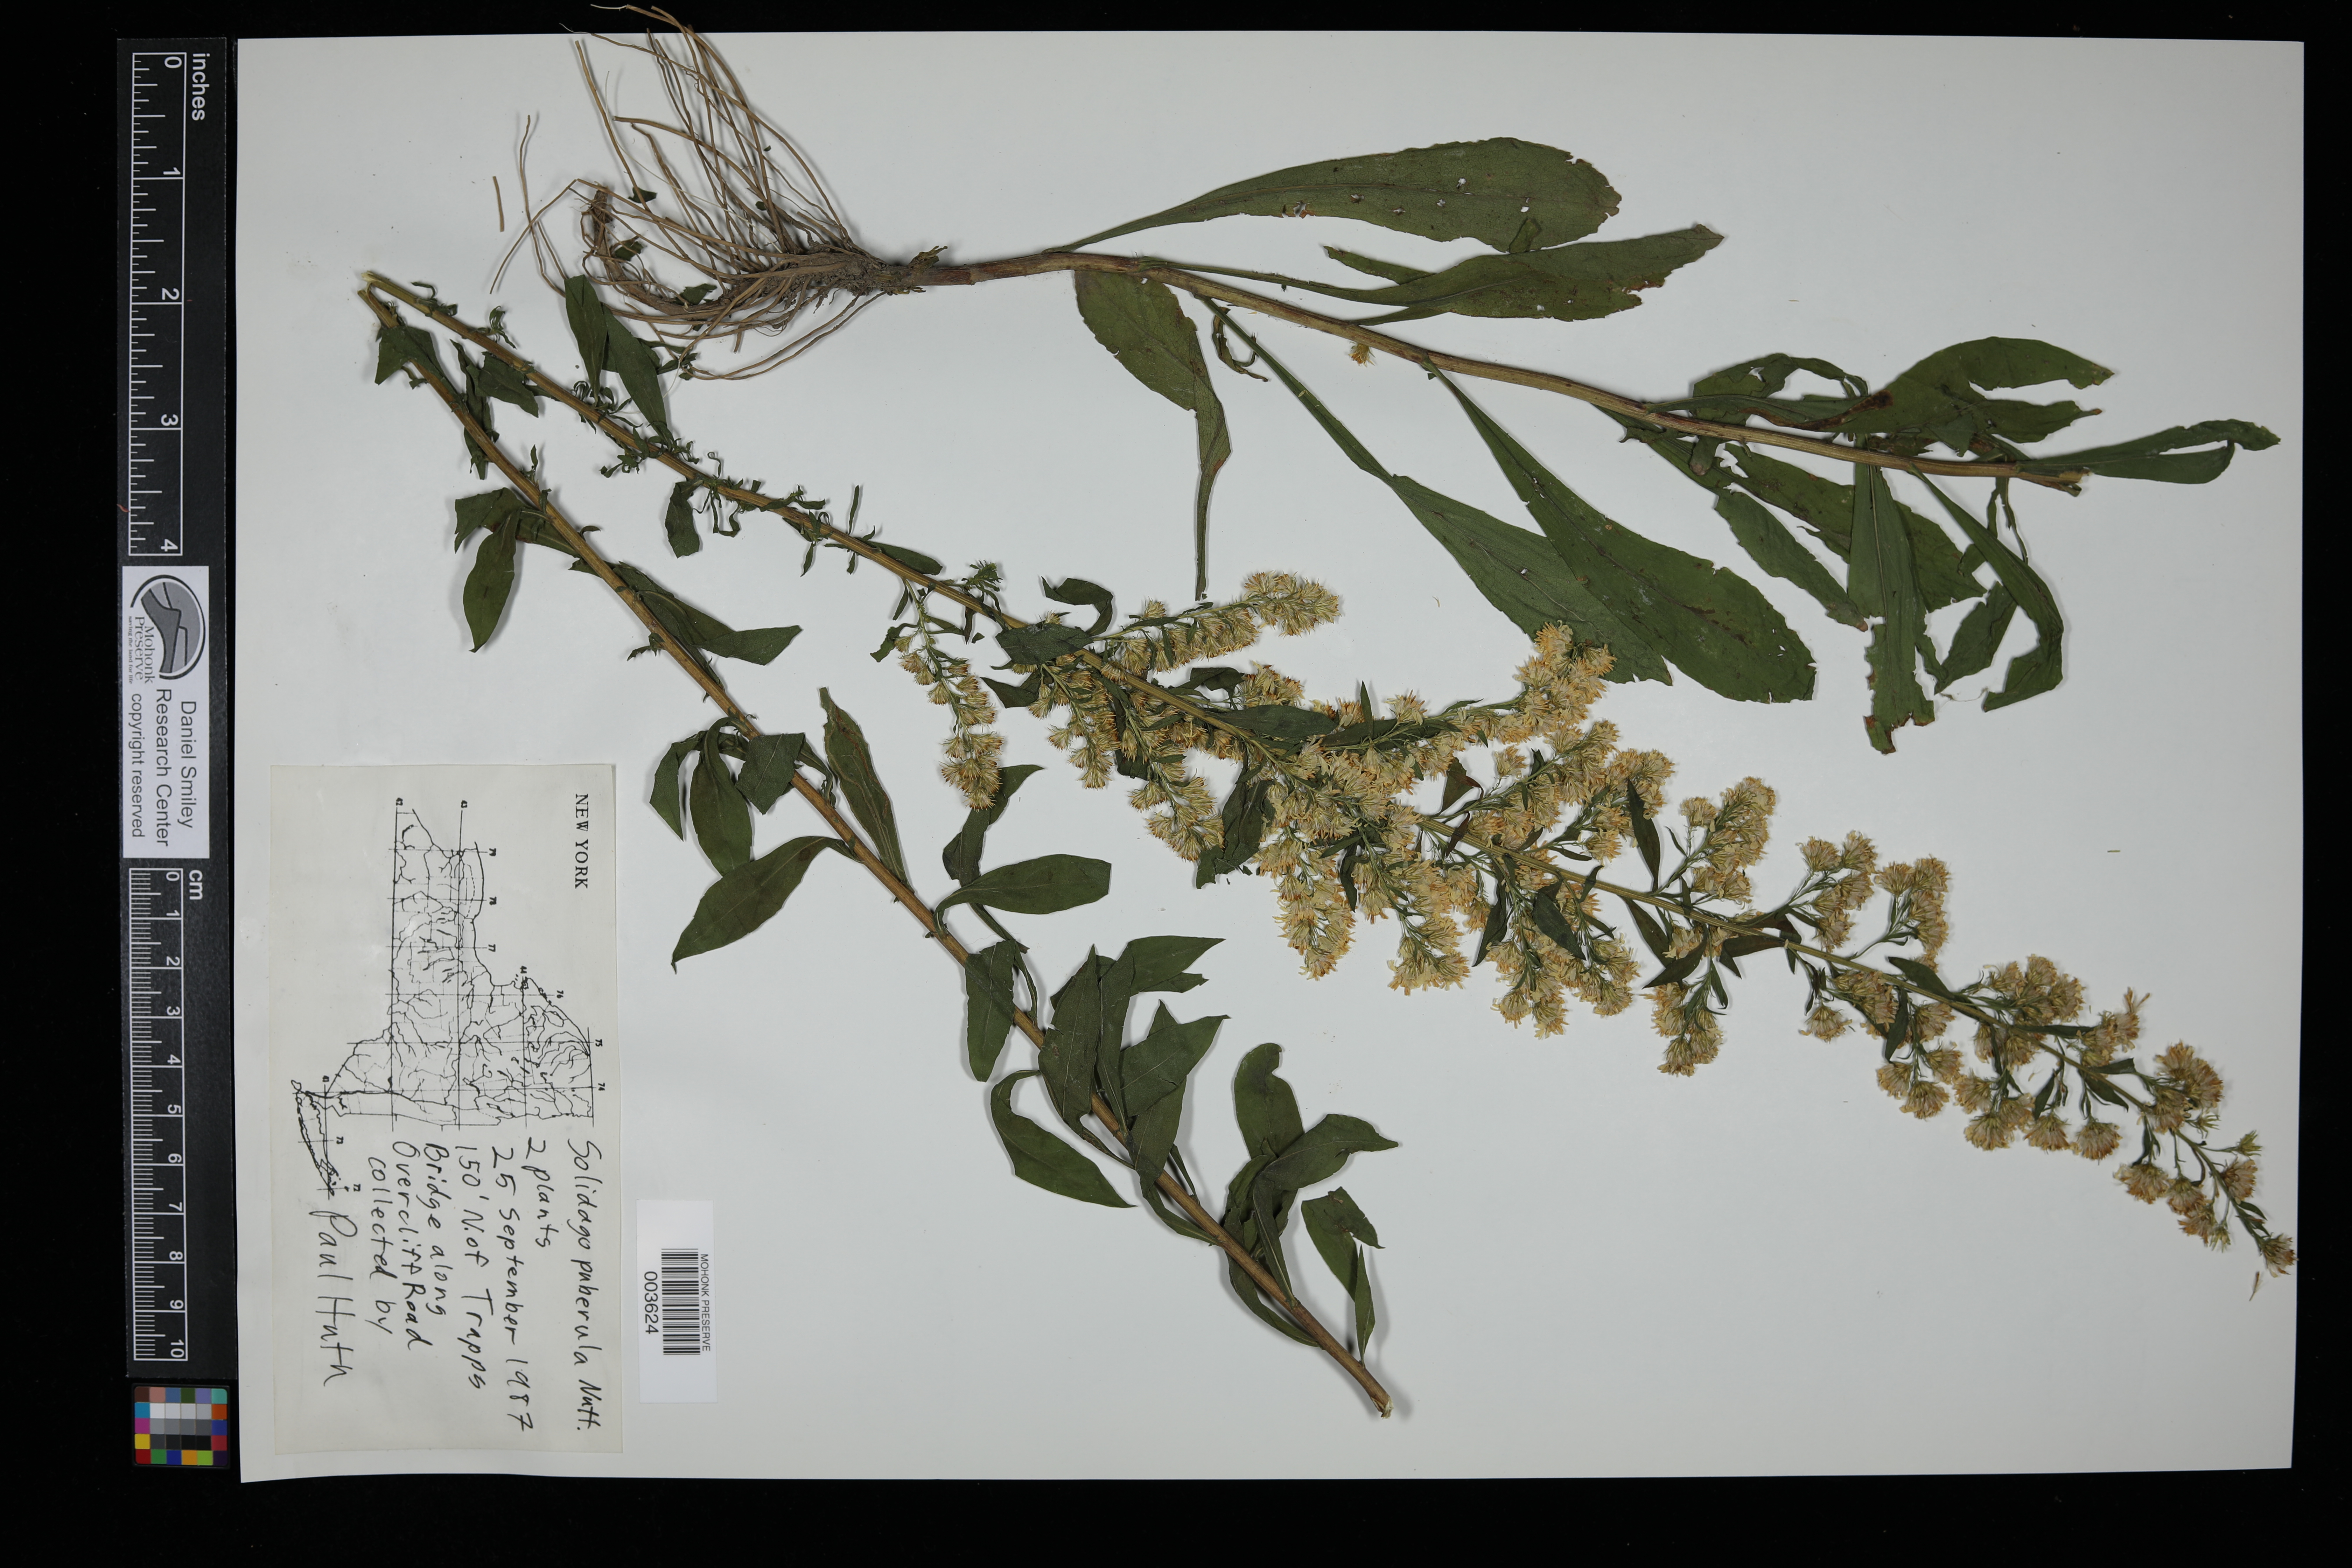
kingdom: Plantae
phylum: Tracheophyta
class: Magnoliopsida
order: Asterales
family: Asteraceae
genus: Solidago
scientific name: Solidago puberula
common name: Downy goldenrod
